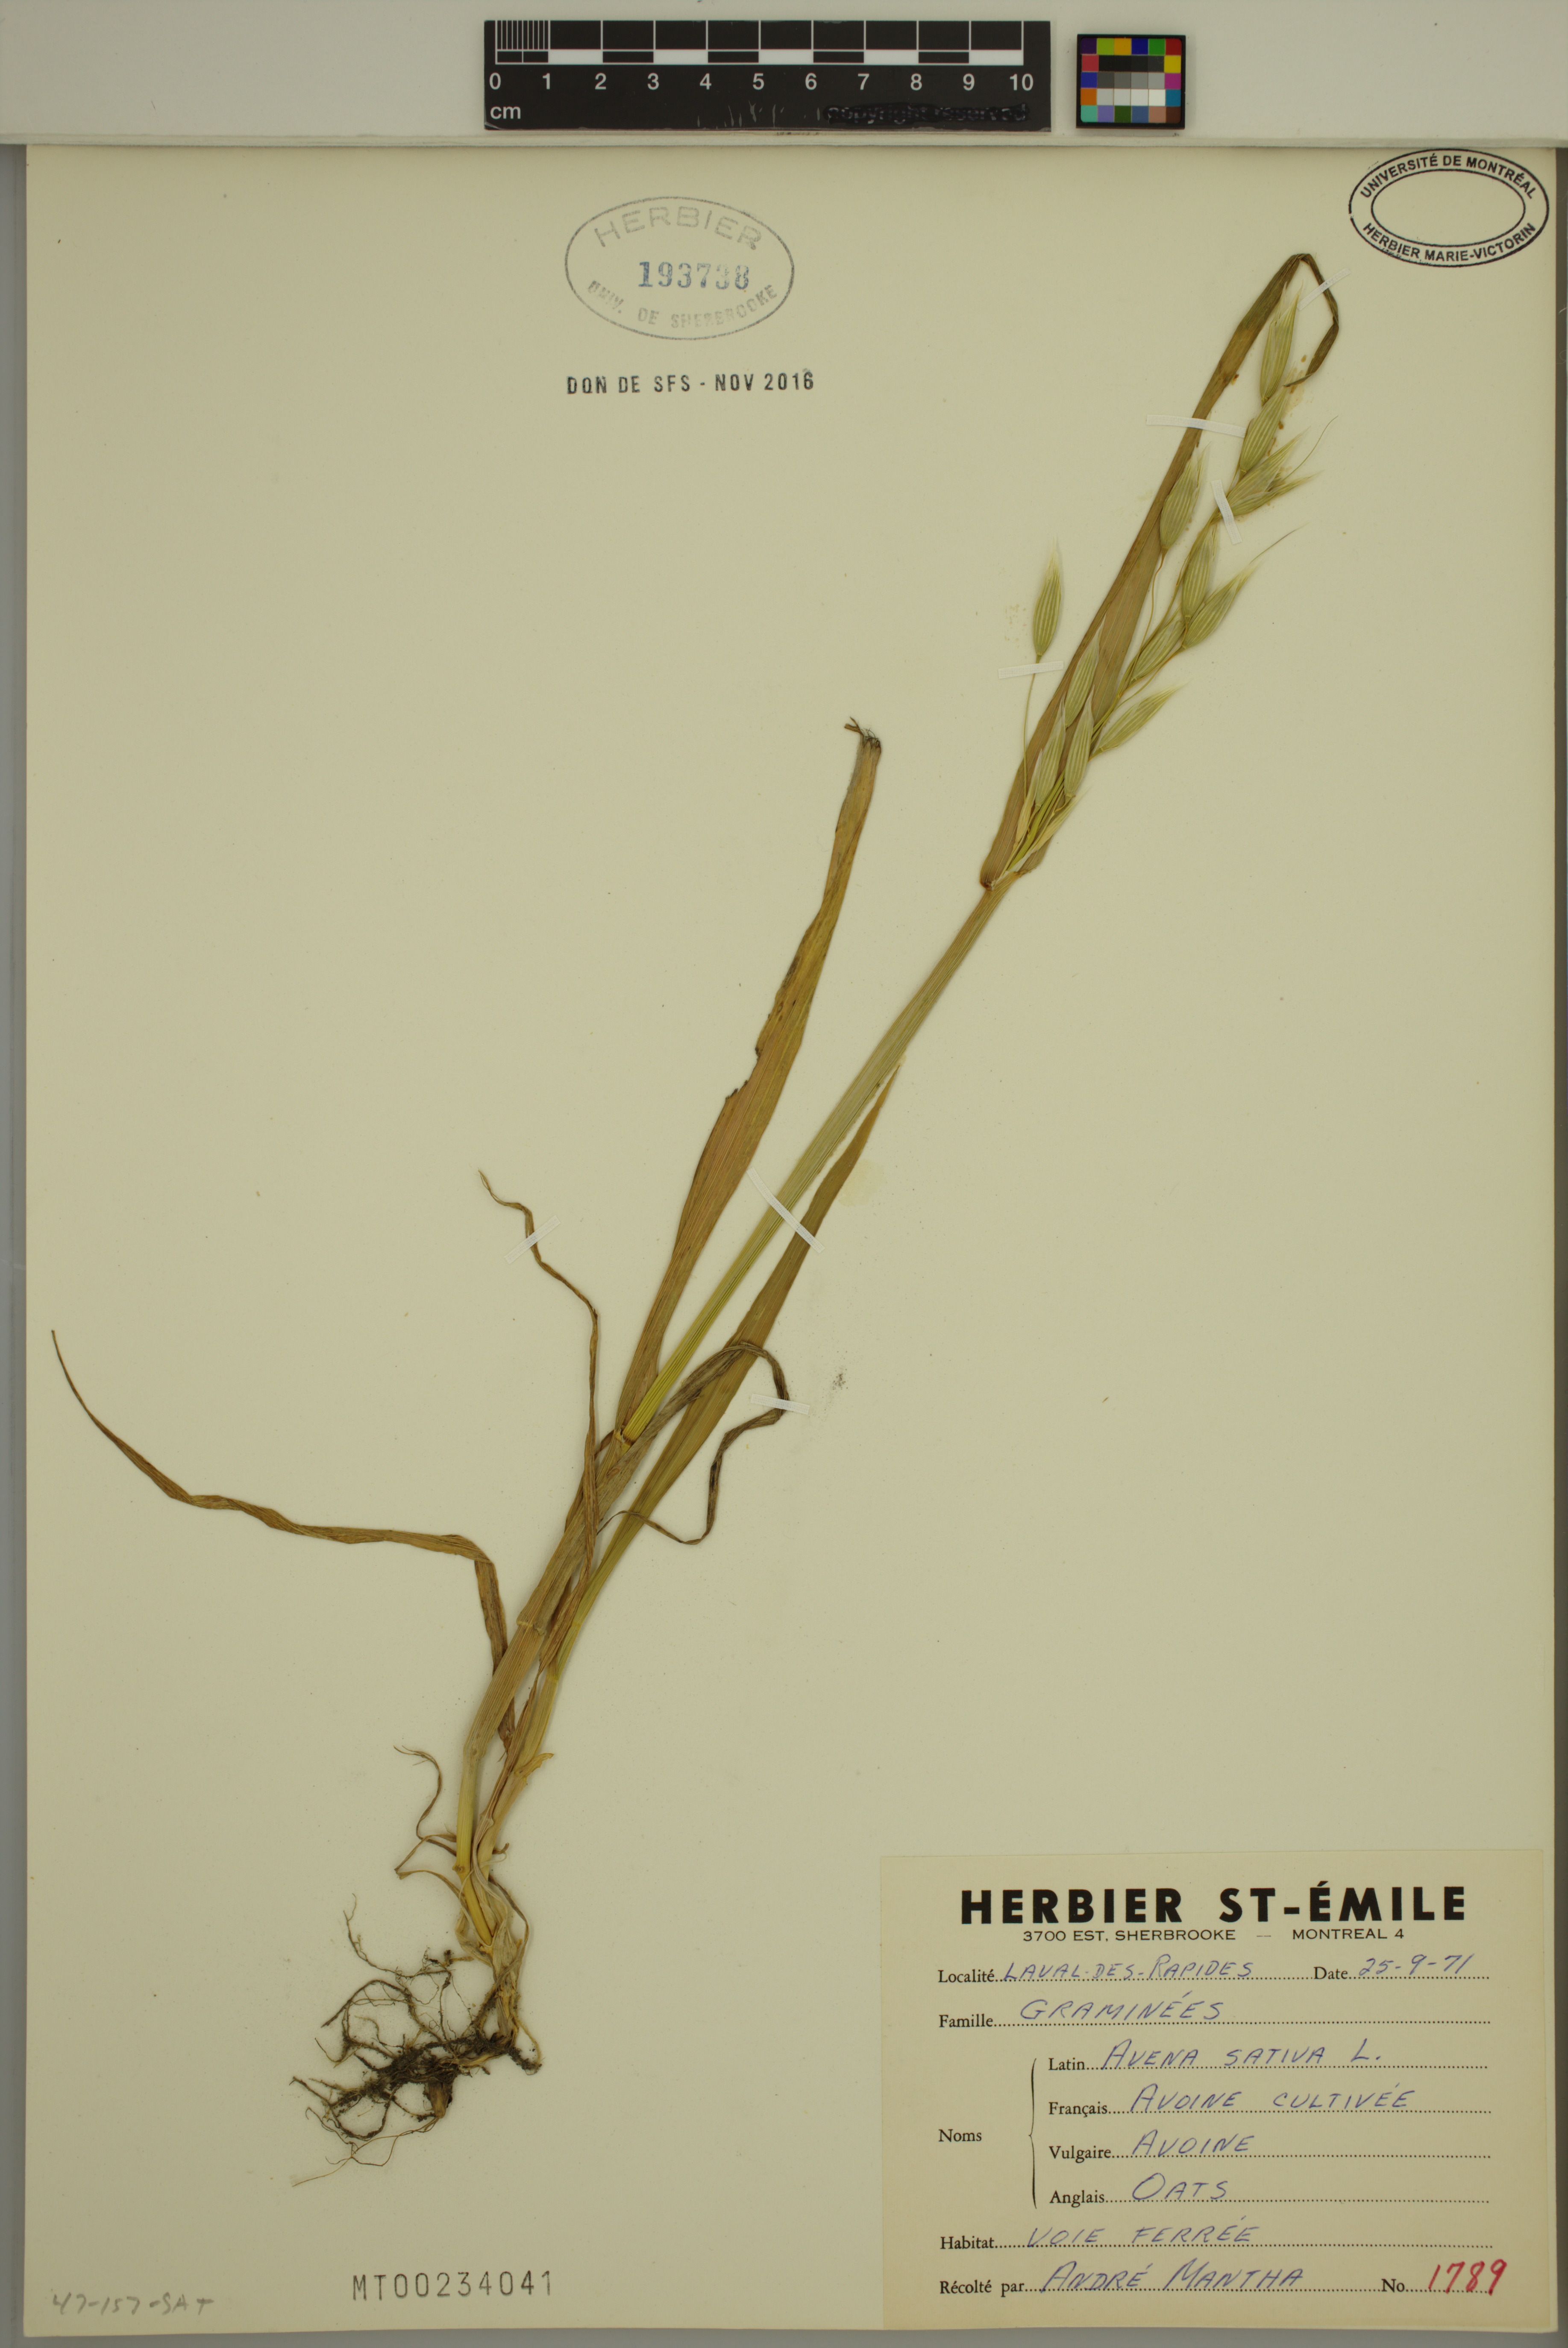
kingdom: Plantae
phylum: Tracheophyta
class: Liliopsida
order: Poales
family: Poaceae
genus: Avena
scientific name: Avena sativa
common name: Oat
